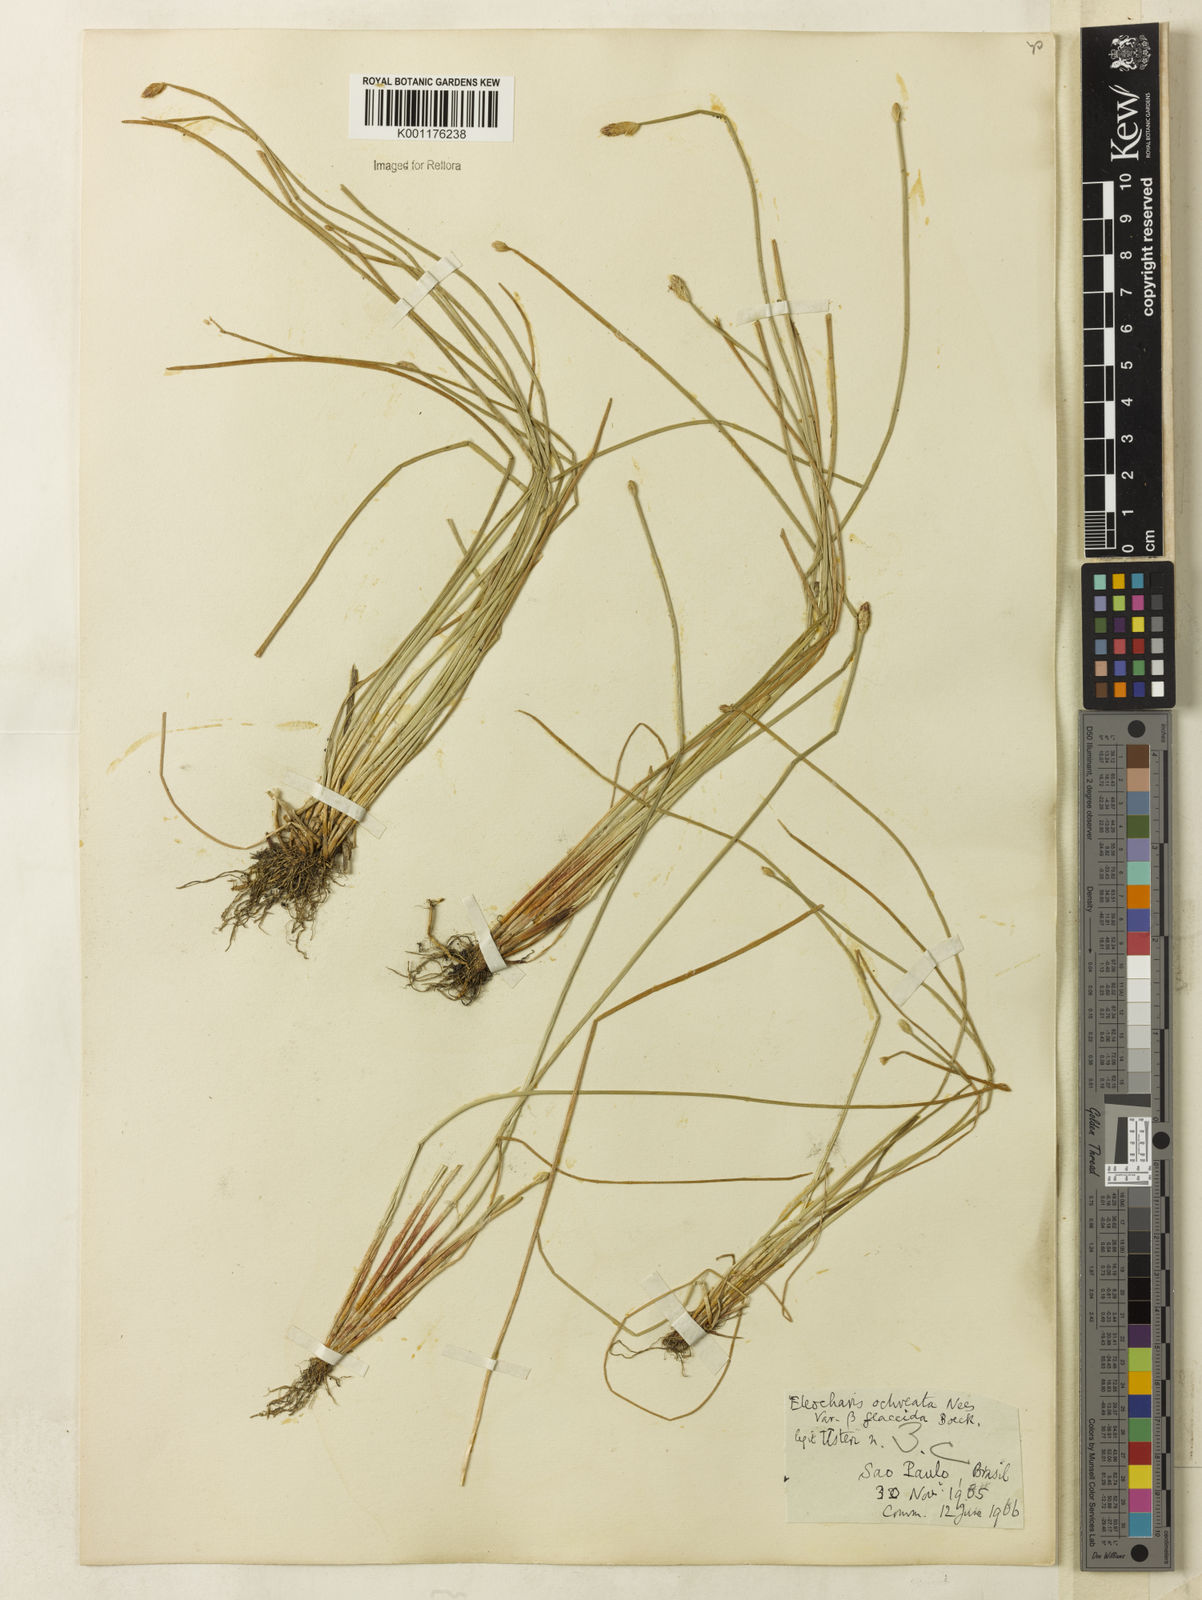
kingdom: Plantae
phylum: Tracheophyta
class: Liliopsida
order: Poales
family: Cyperaceae
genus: Eleocharis
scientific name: Eleocharis flavescens
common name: Yellow spikerush
